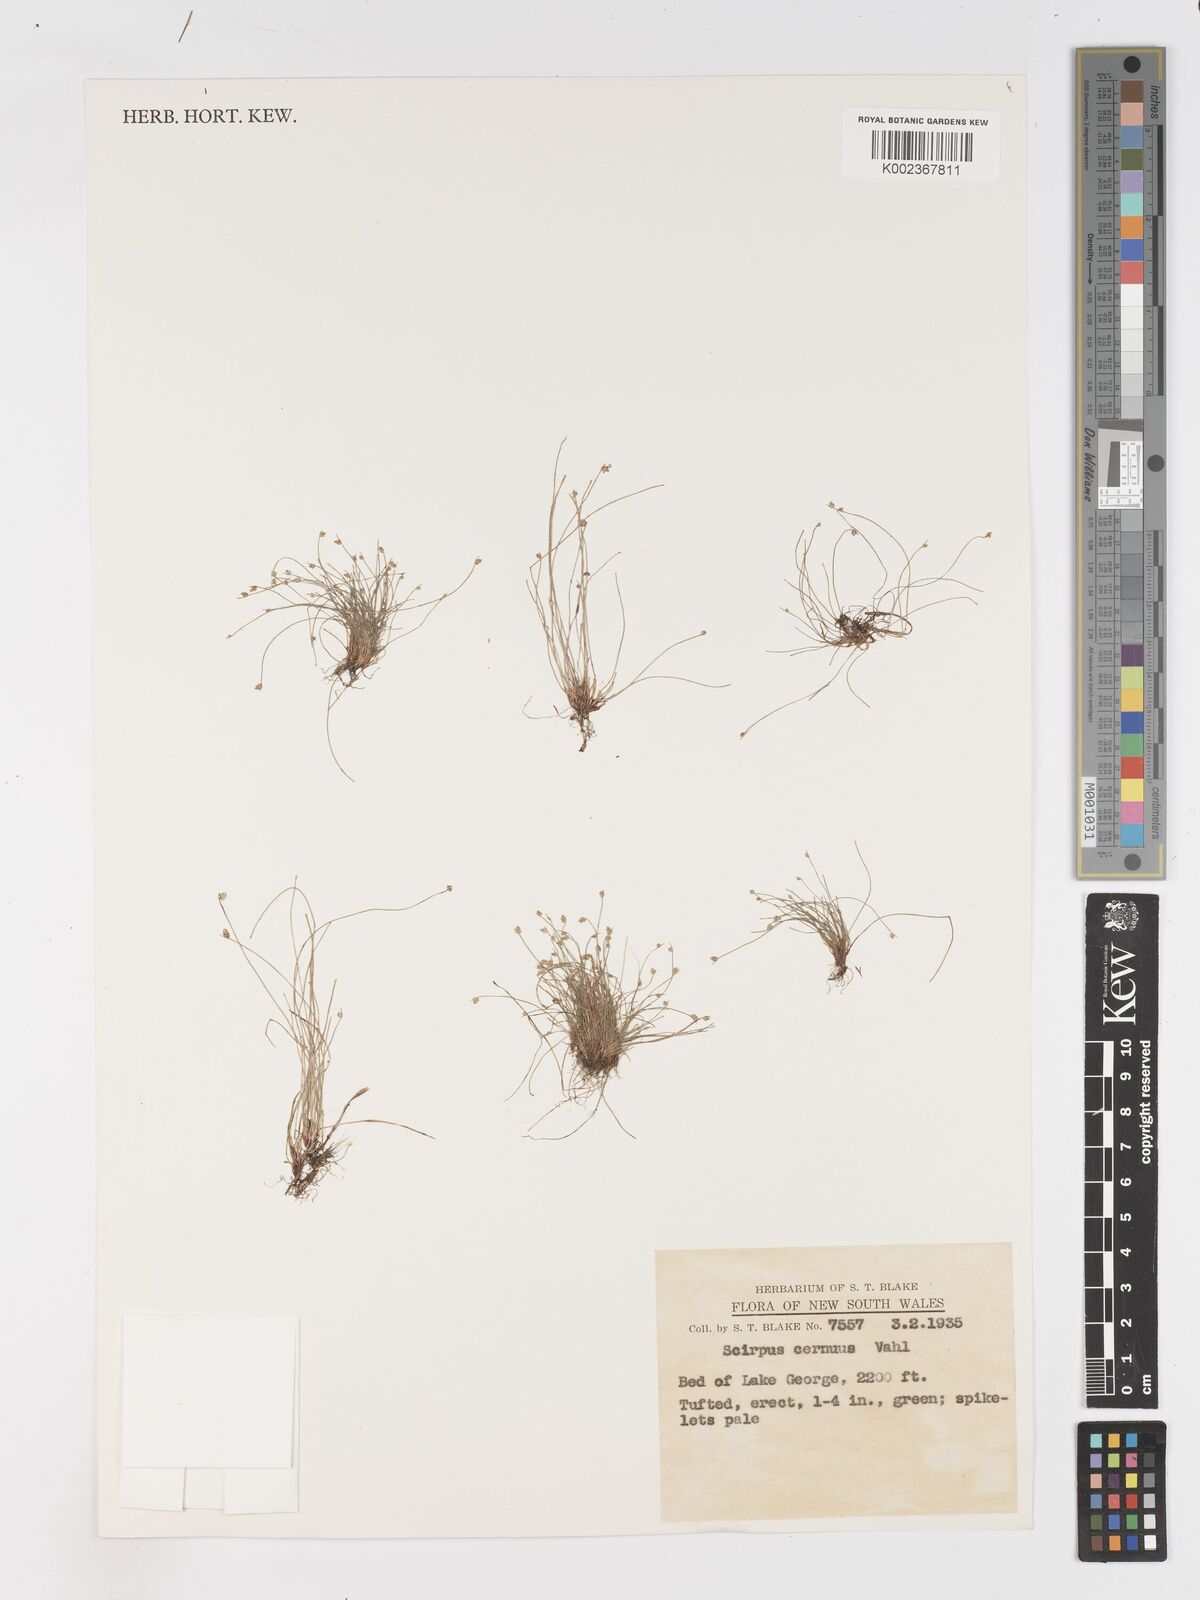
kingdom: Plantae
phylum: Tracheophyta
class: Liliopsida
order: Poales
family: Cyperaceae
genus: Isolepis
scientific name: Isolepis cernua
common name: Slender club-rush
